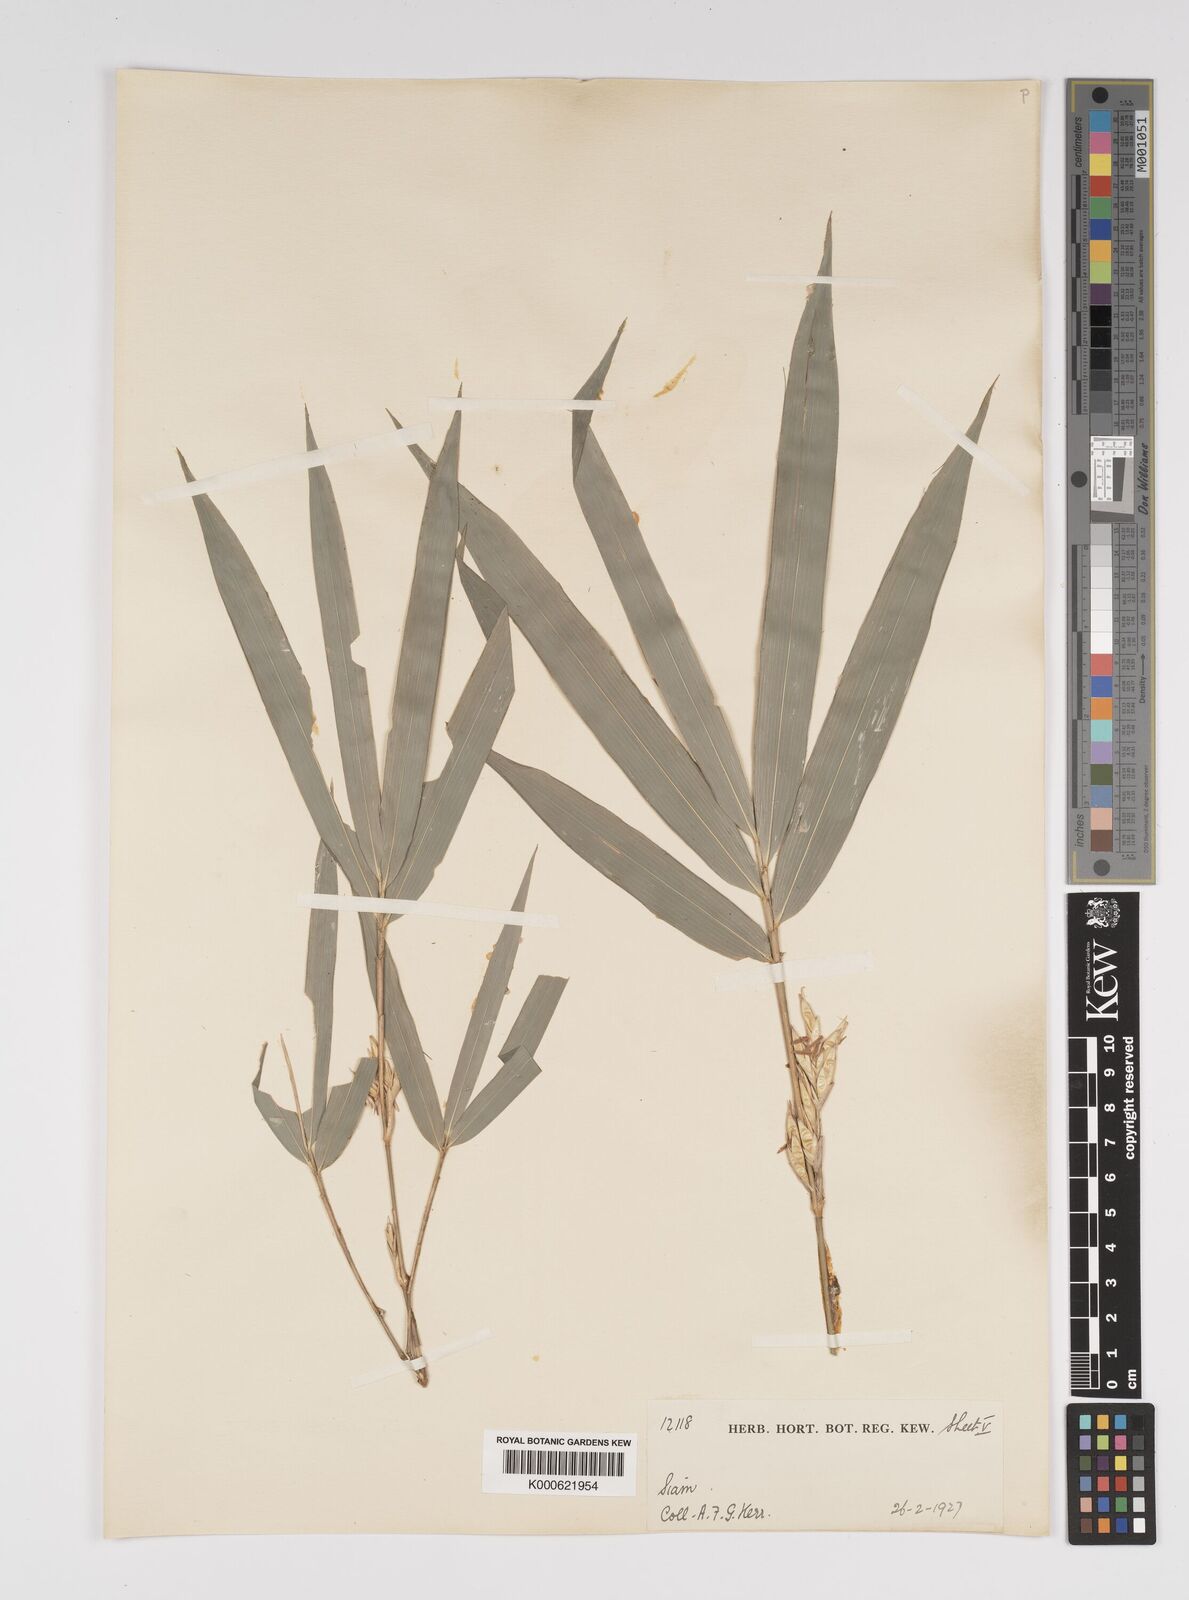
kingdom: Plantae
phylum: Tracheophyta
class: Liliopsida
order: Poales
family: Poaceae
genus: Bambusa
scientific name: Bambusa
